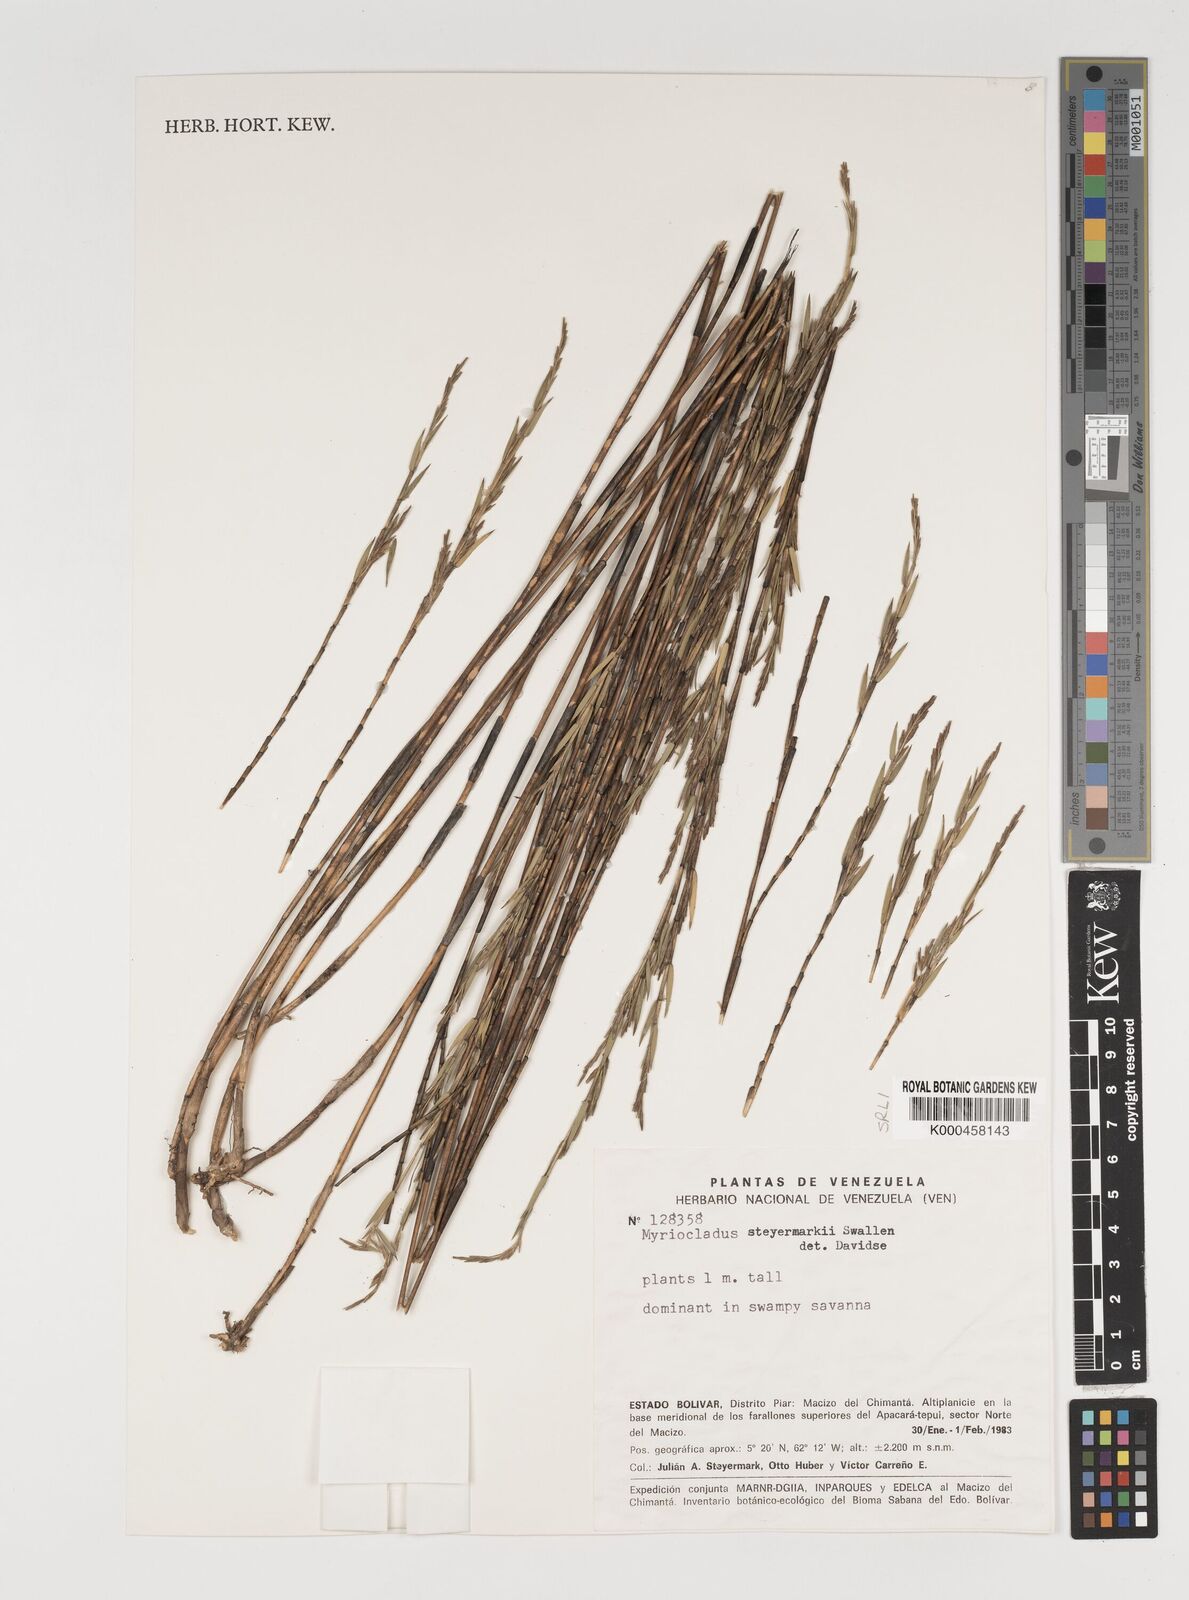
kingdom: Plantae
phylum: Tracheophyta
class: Liliopsida
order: Poales
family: Poaceae
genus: Myriocladus
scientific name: Myriocladus steyermarkii
